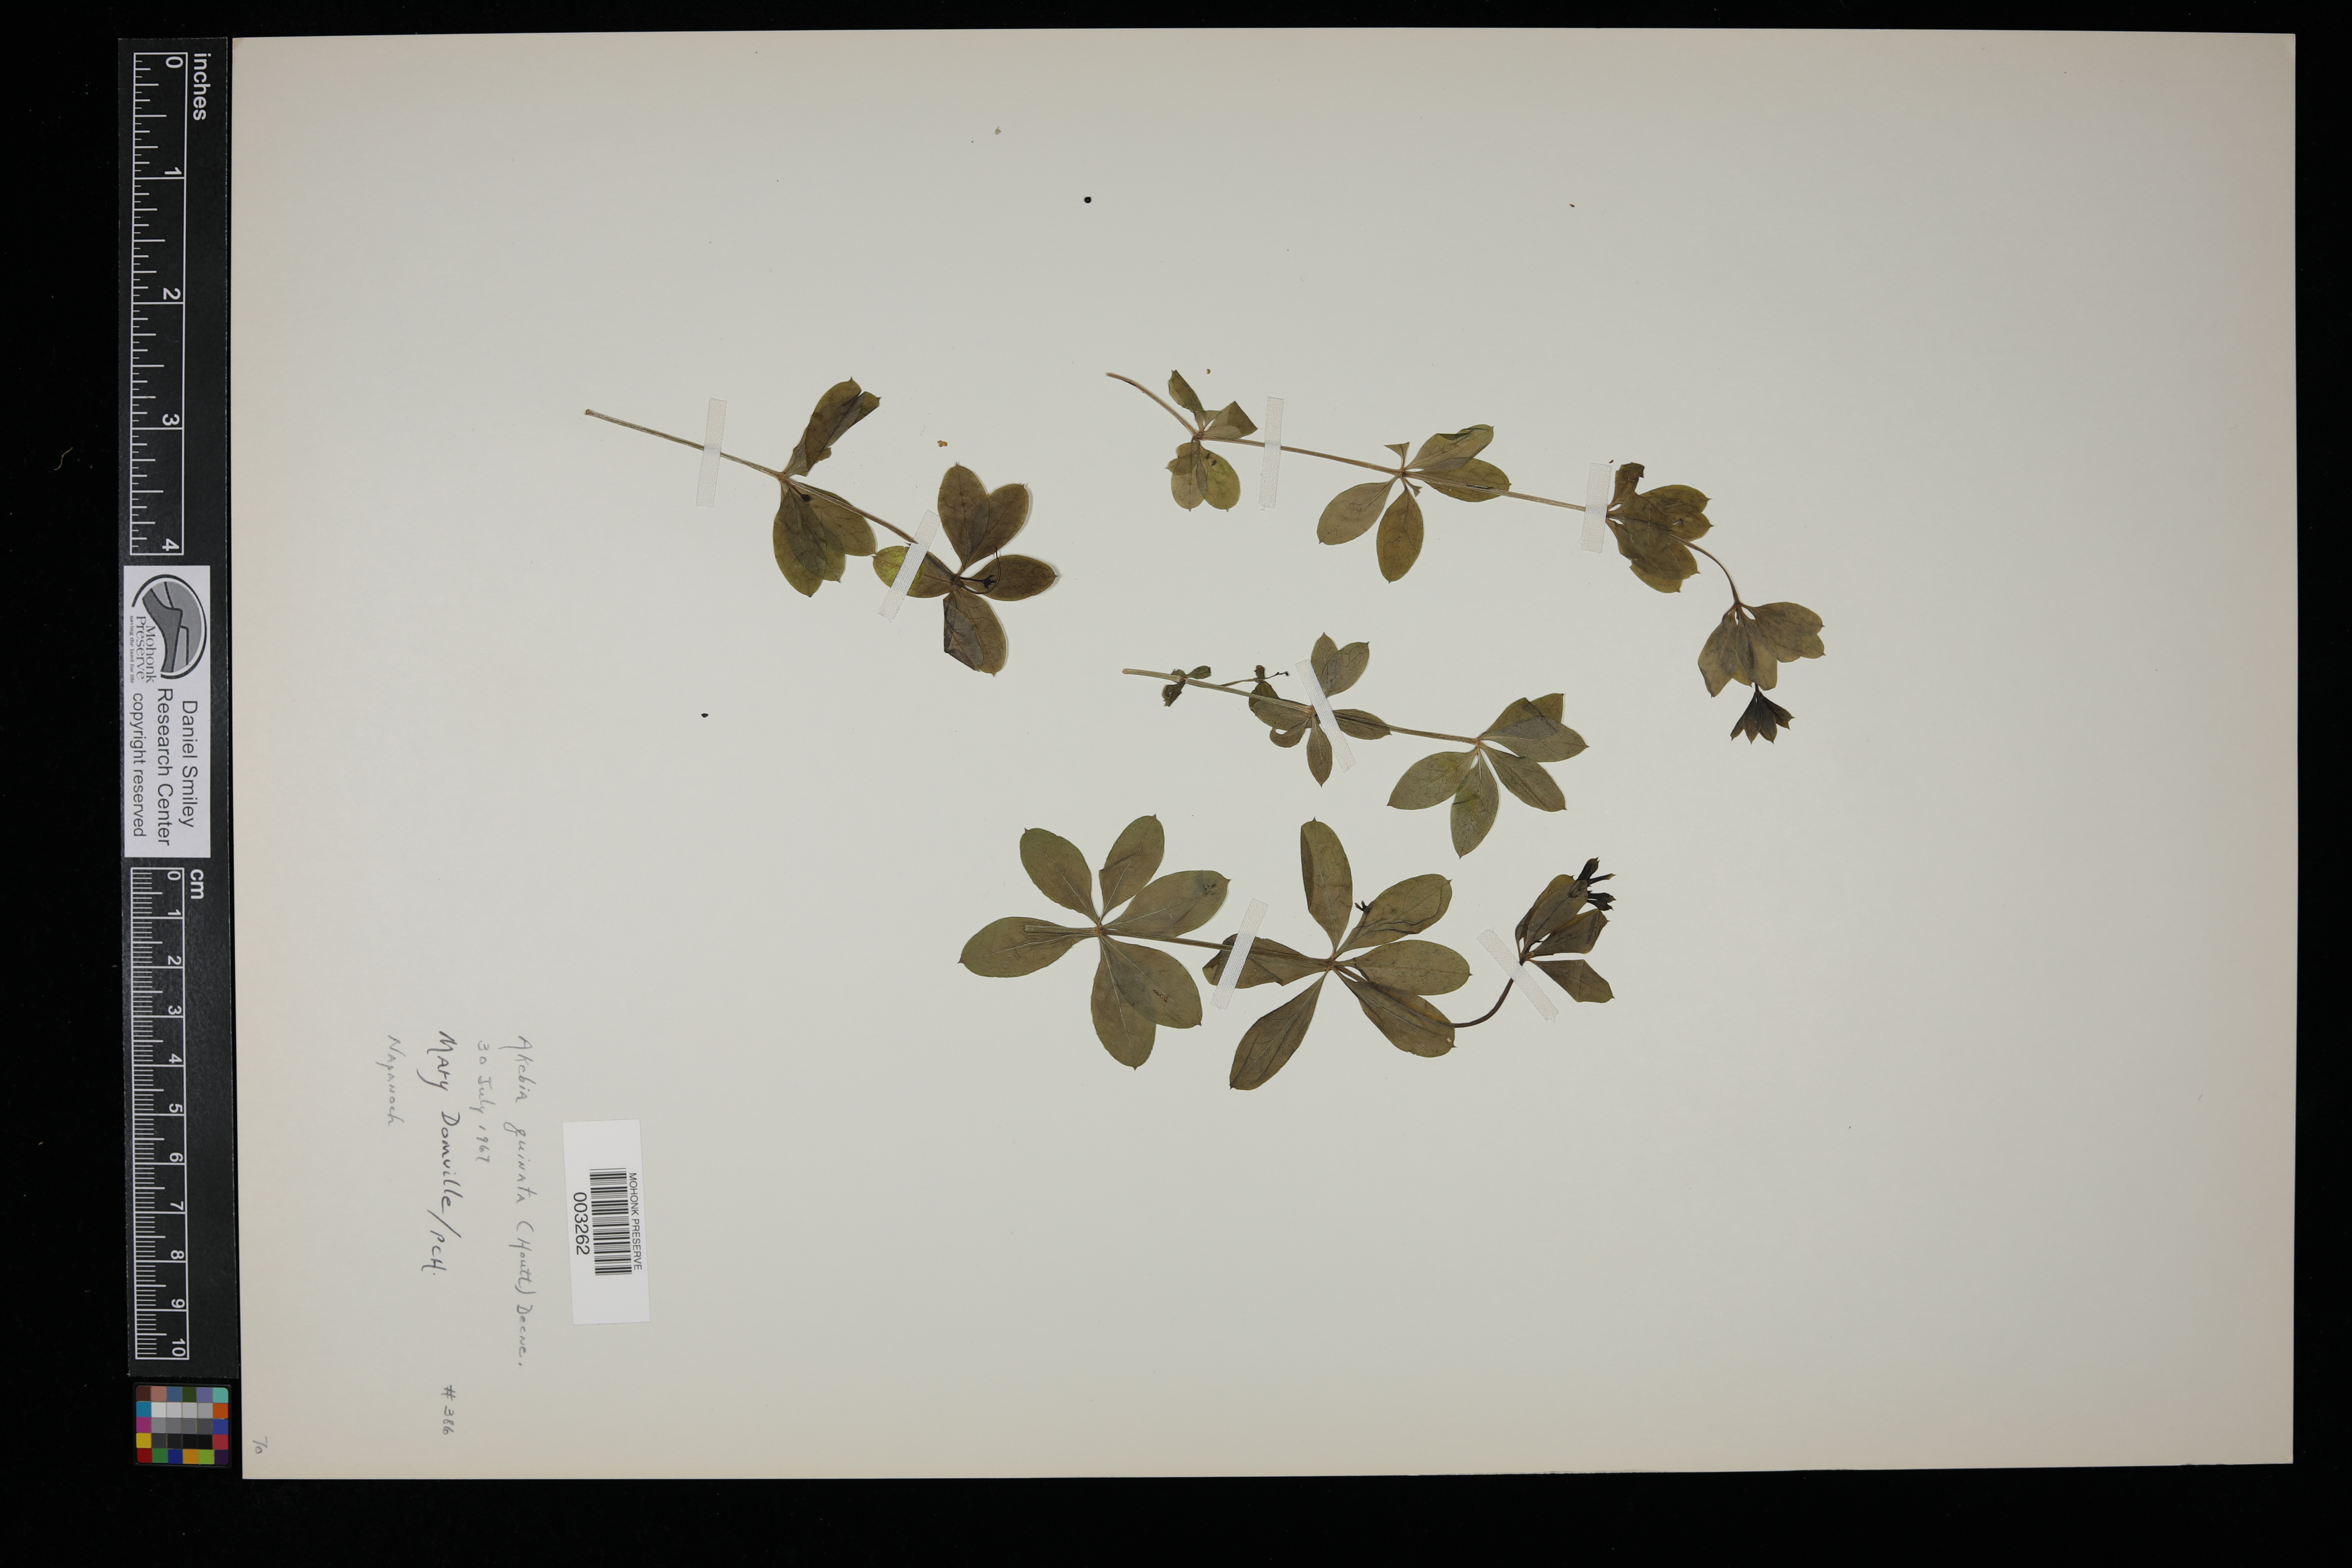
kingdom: Plantae
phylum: Tracheophyta
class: Magnoliopsida
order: Ranunculales
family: Lardizabalaceae
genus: Akebia
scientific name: Akebia quinata
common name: Five-leaf akebia
